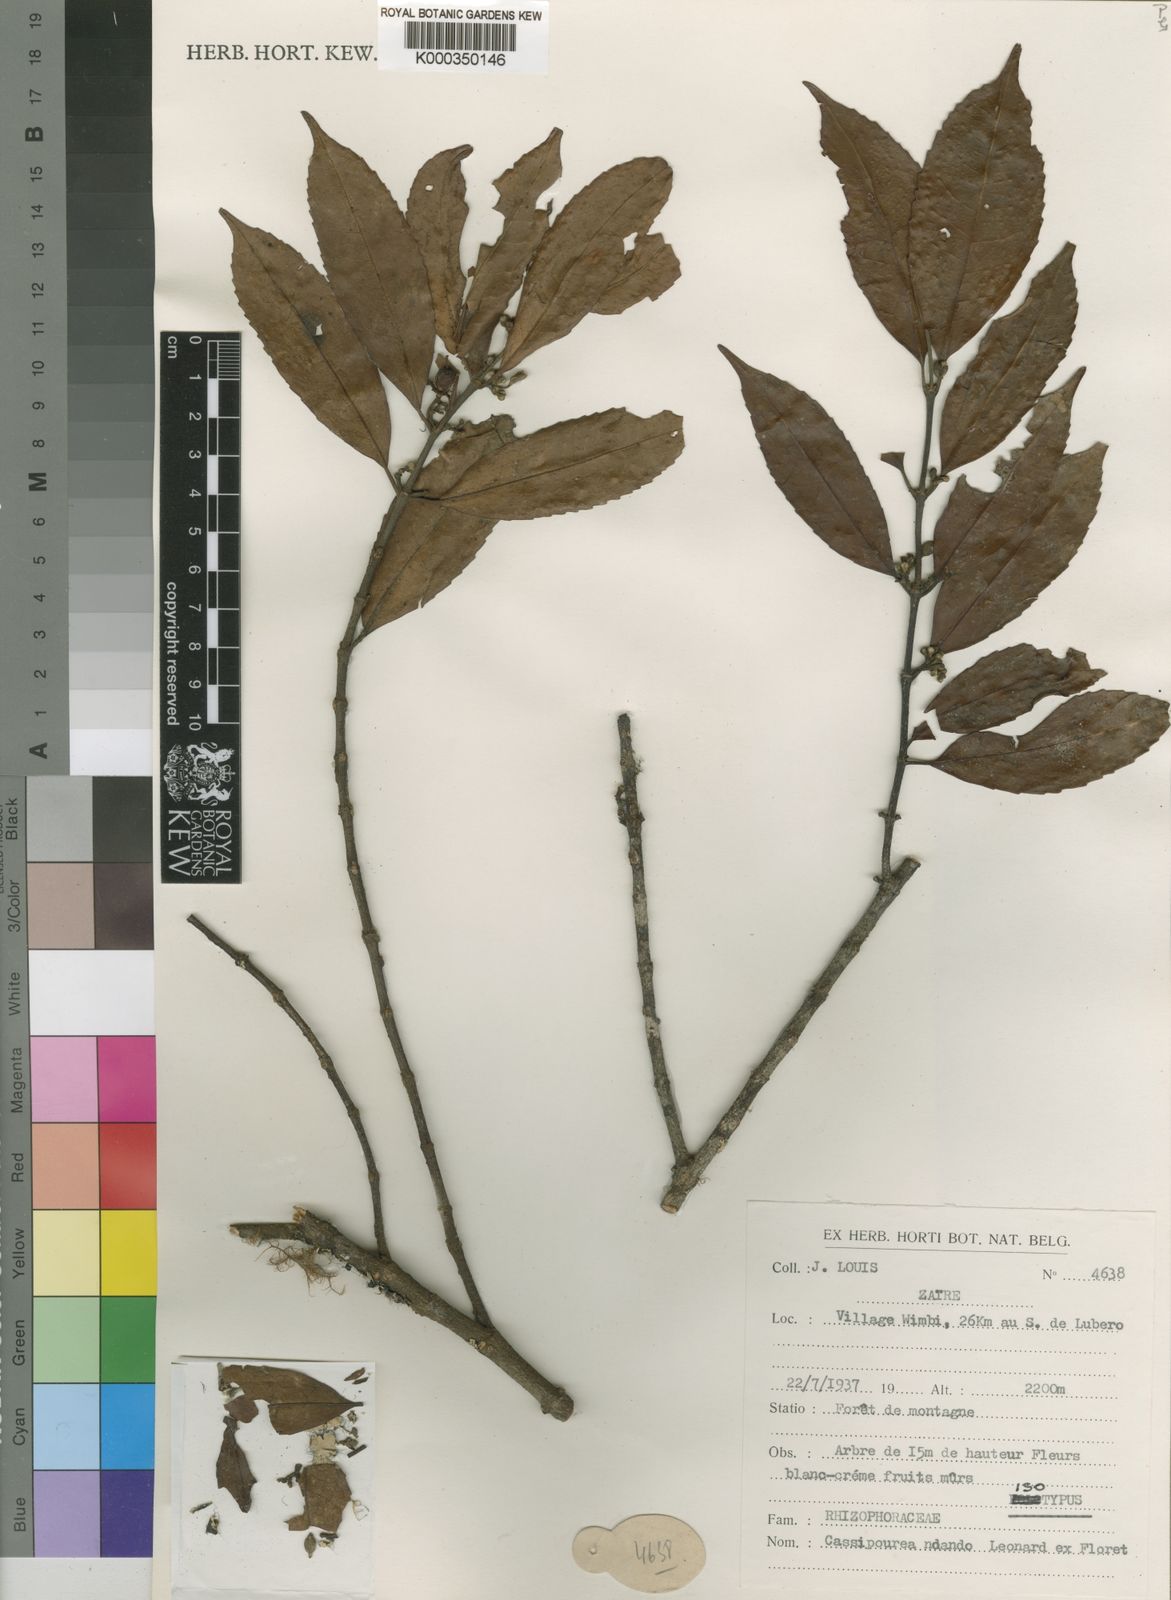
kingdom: Plantae
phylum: Tracheophyta
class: Magnoliopsida
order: Malpighiales
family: Rhizophoraceae
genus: Cassipourea
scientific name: Cassipourea
